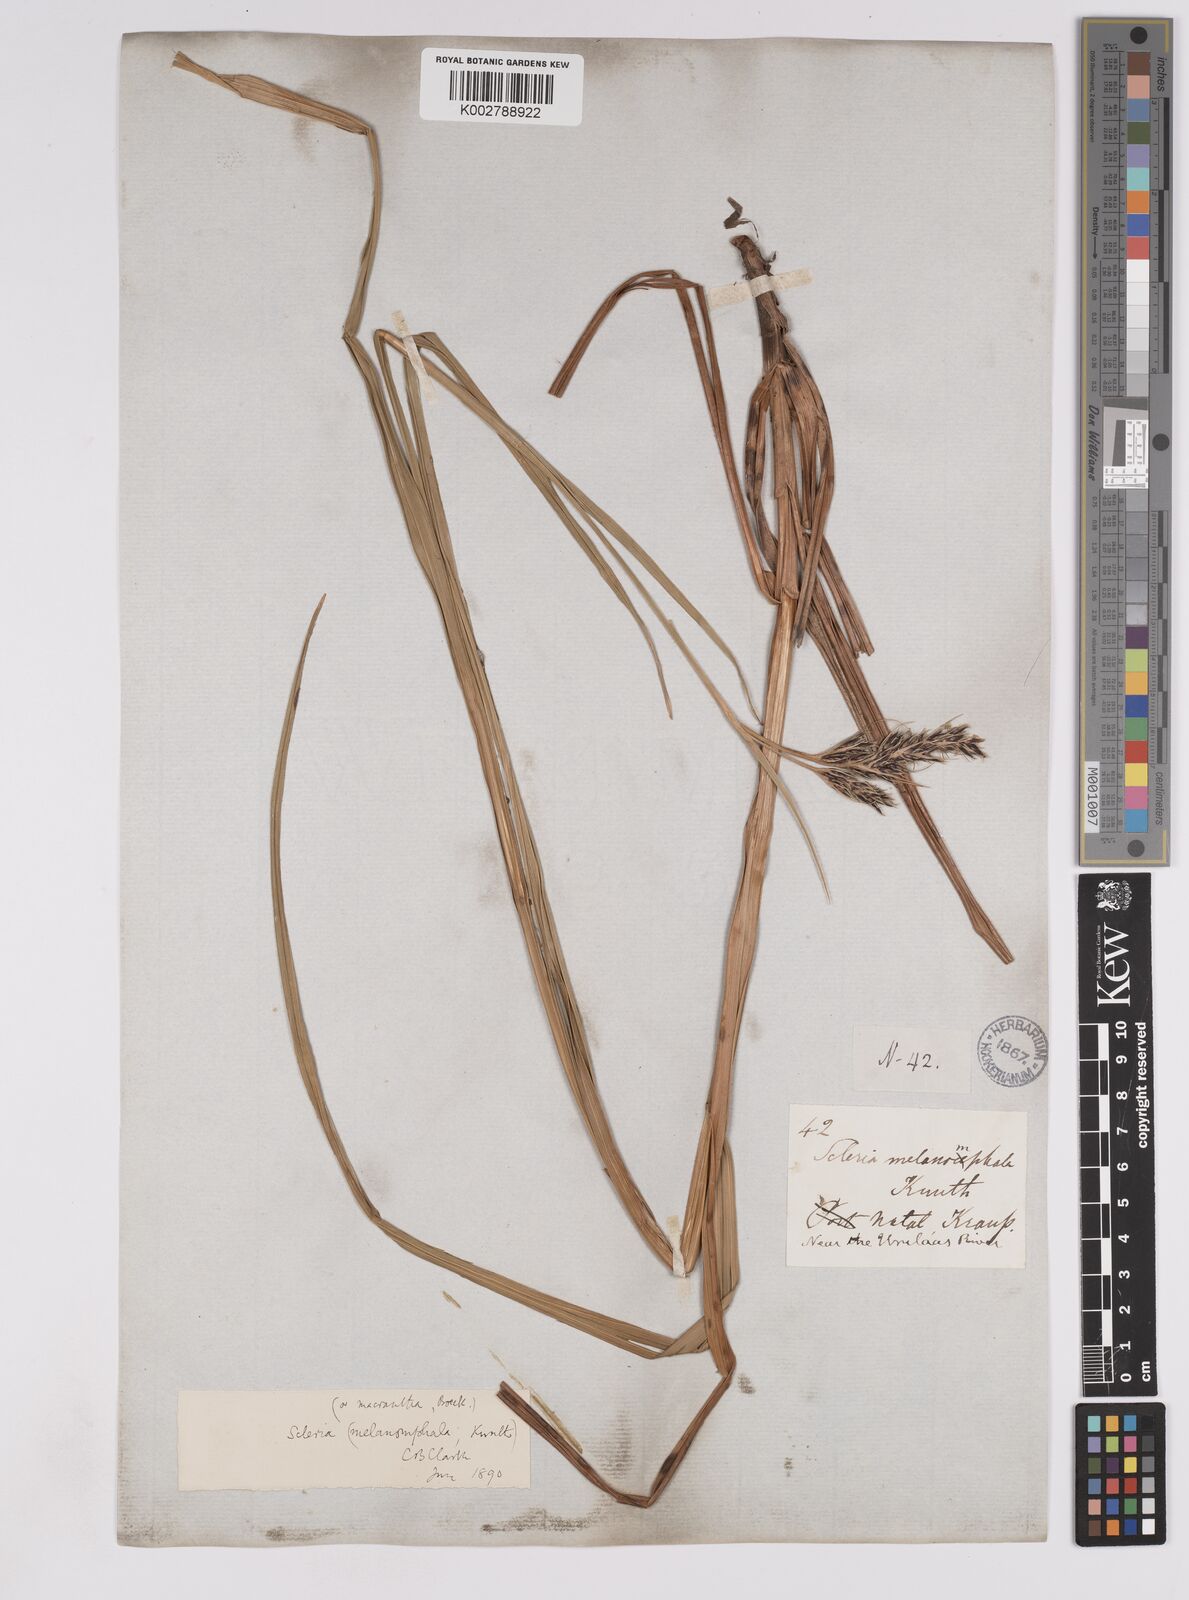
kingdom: Plantae
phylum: Tracheophyta
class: Liliopsida
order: Poales
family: Cyperaceae
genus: Scleria
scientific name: Scleria melanomphala
